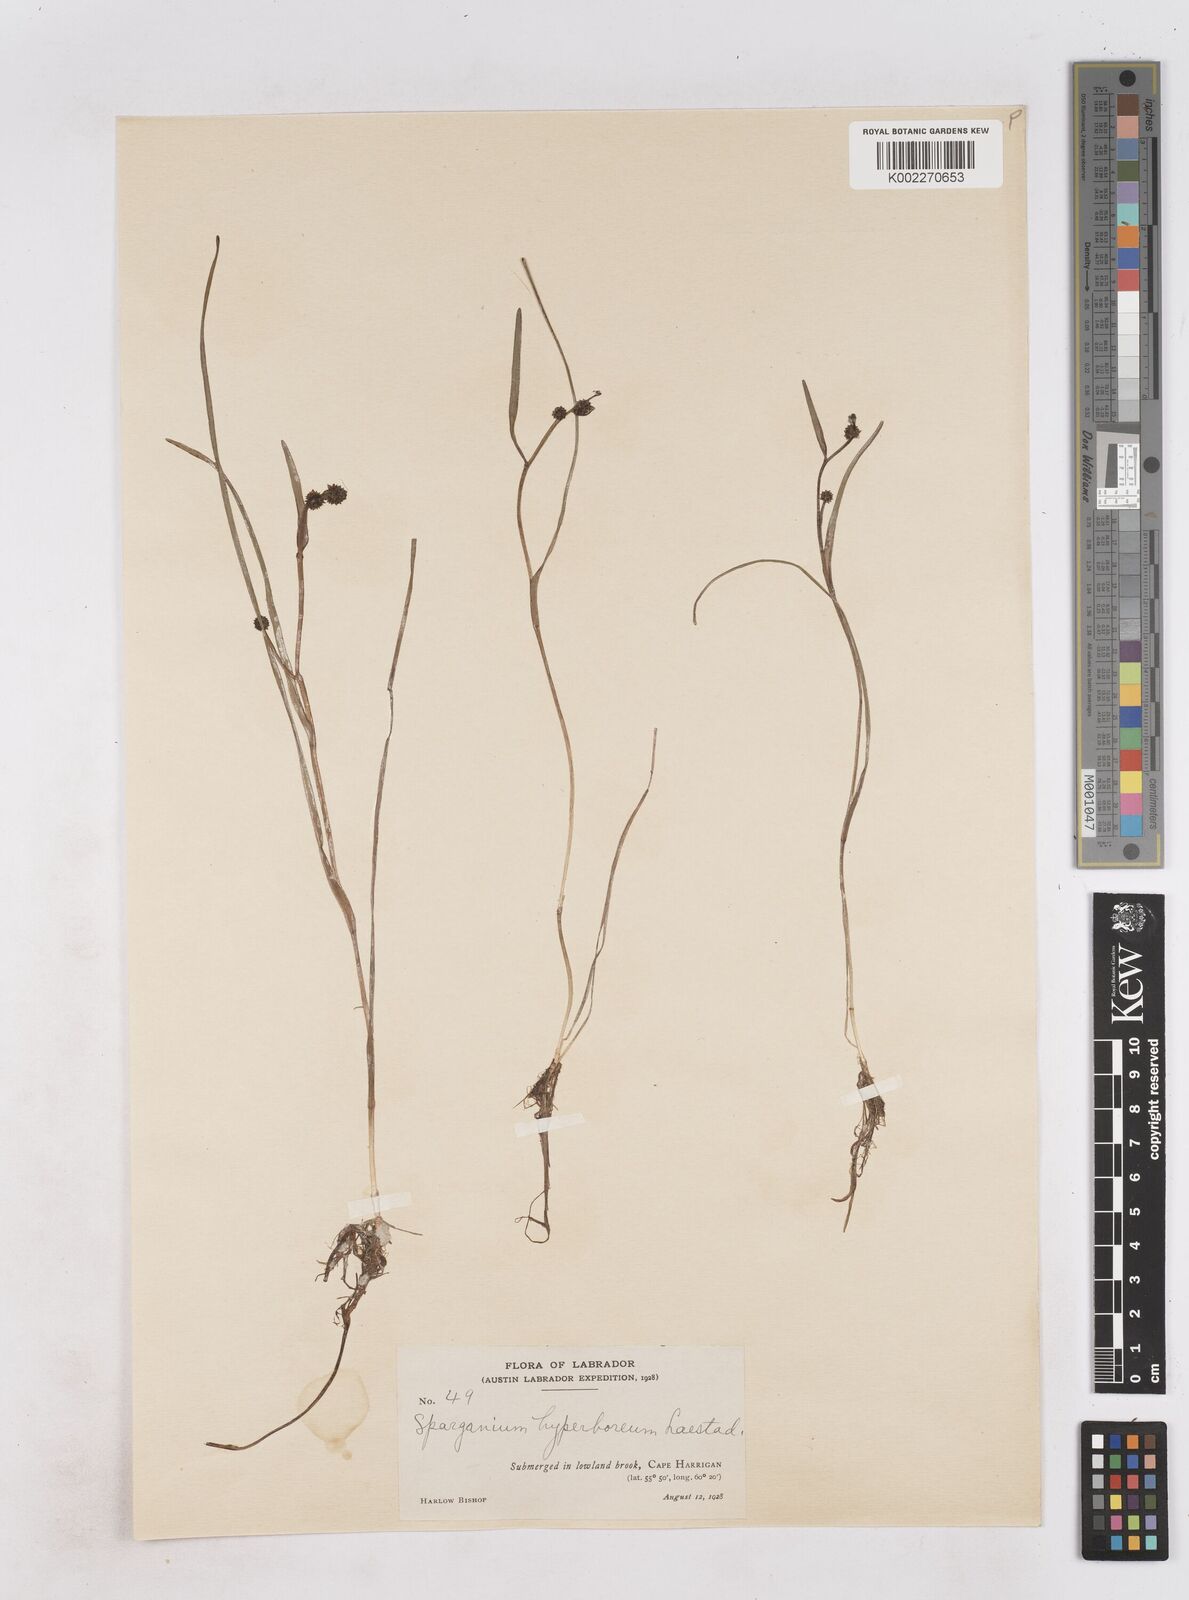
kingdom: Plantae
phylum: Tracheophyta
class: Liliopsida
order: Poales
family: Typhaceae
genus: Sparganium
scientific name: Sparganium hyperboreum
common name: Arctic burreed
